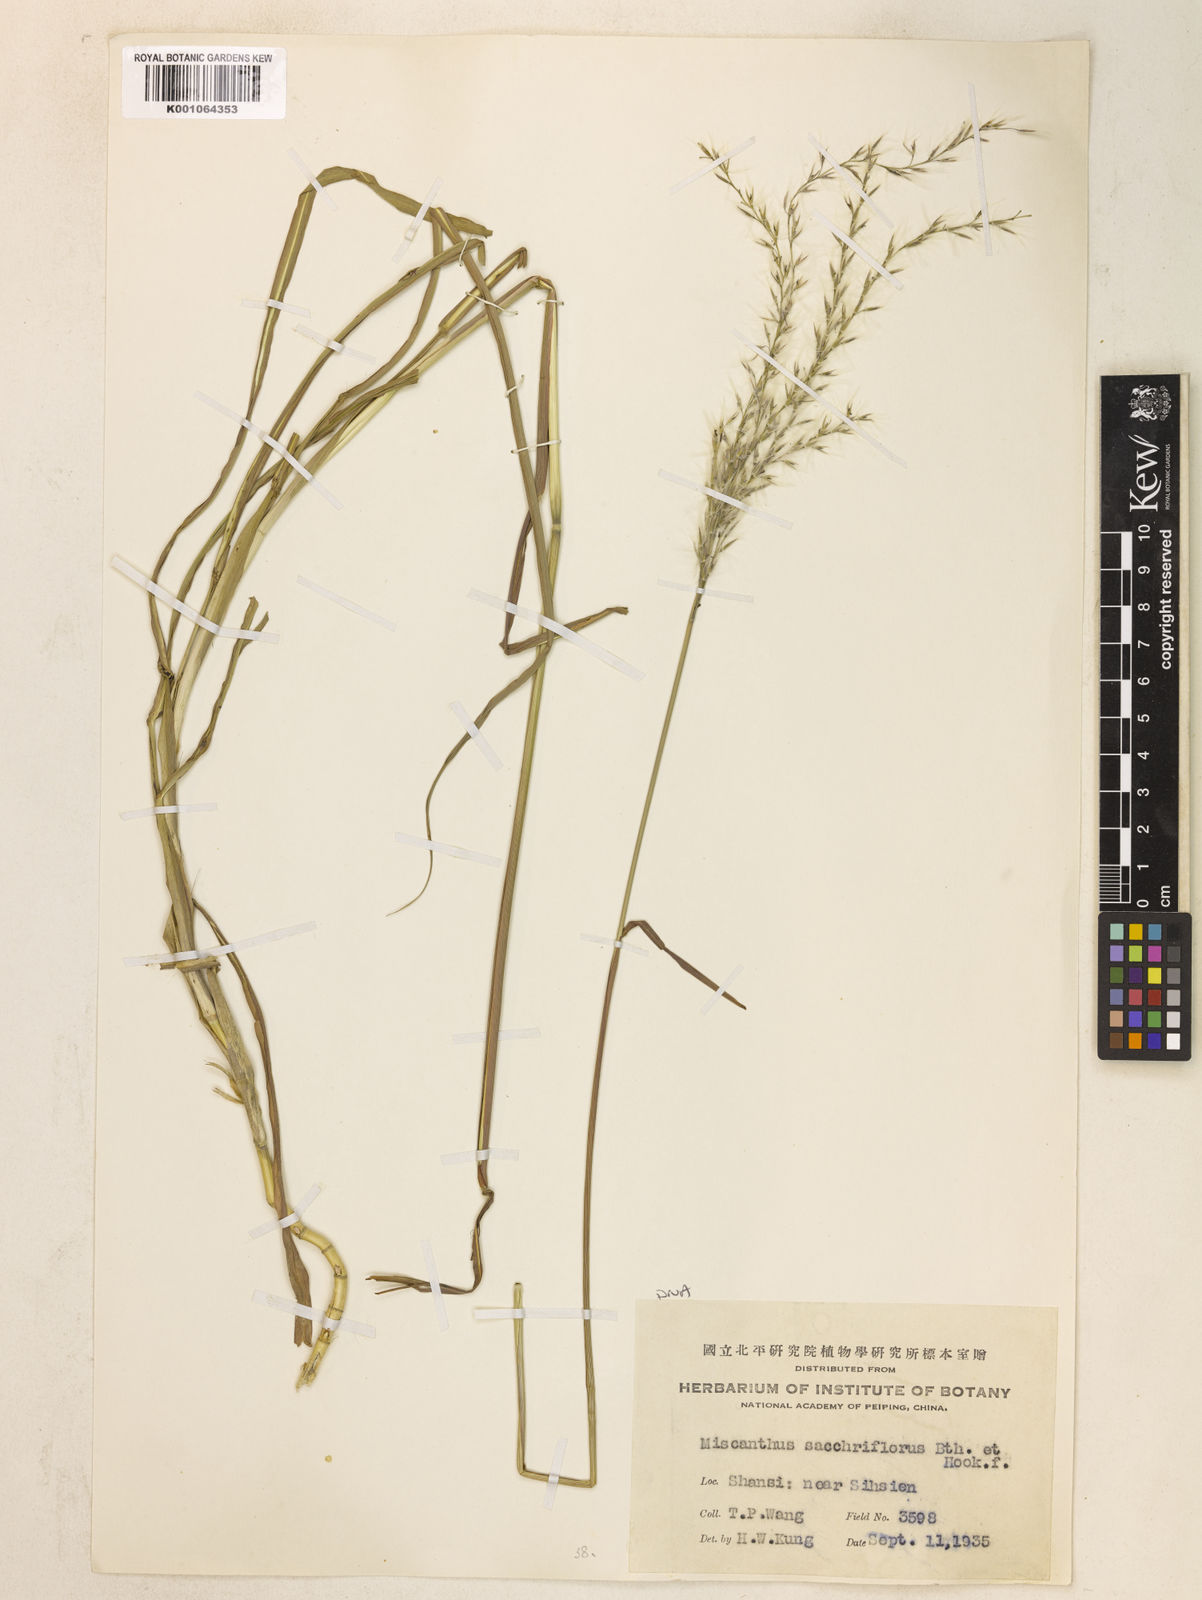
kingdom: Plantae
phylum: Tracheophyta
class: Liliopsida
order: Poales
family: Poaceae
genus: Miscanthus
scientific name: Miscanthus
